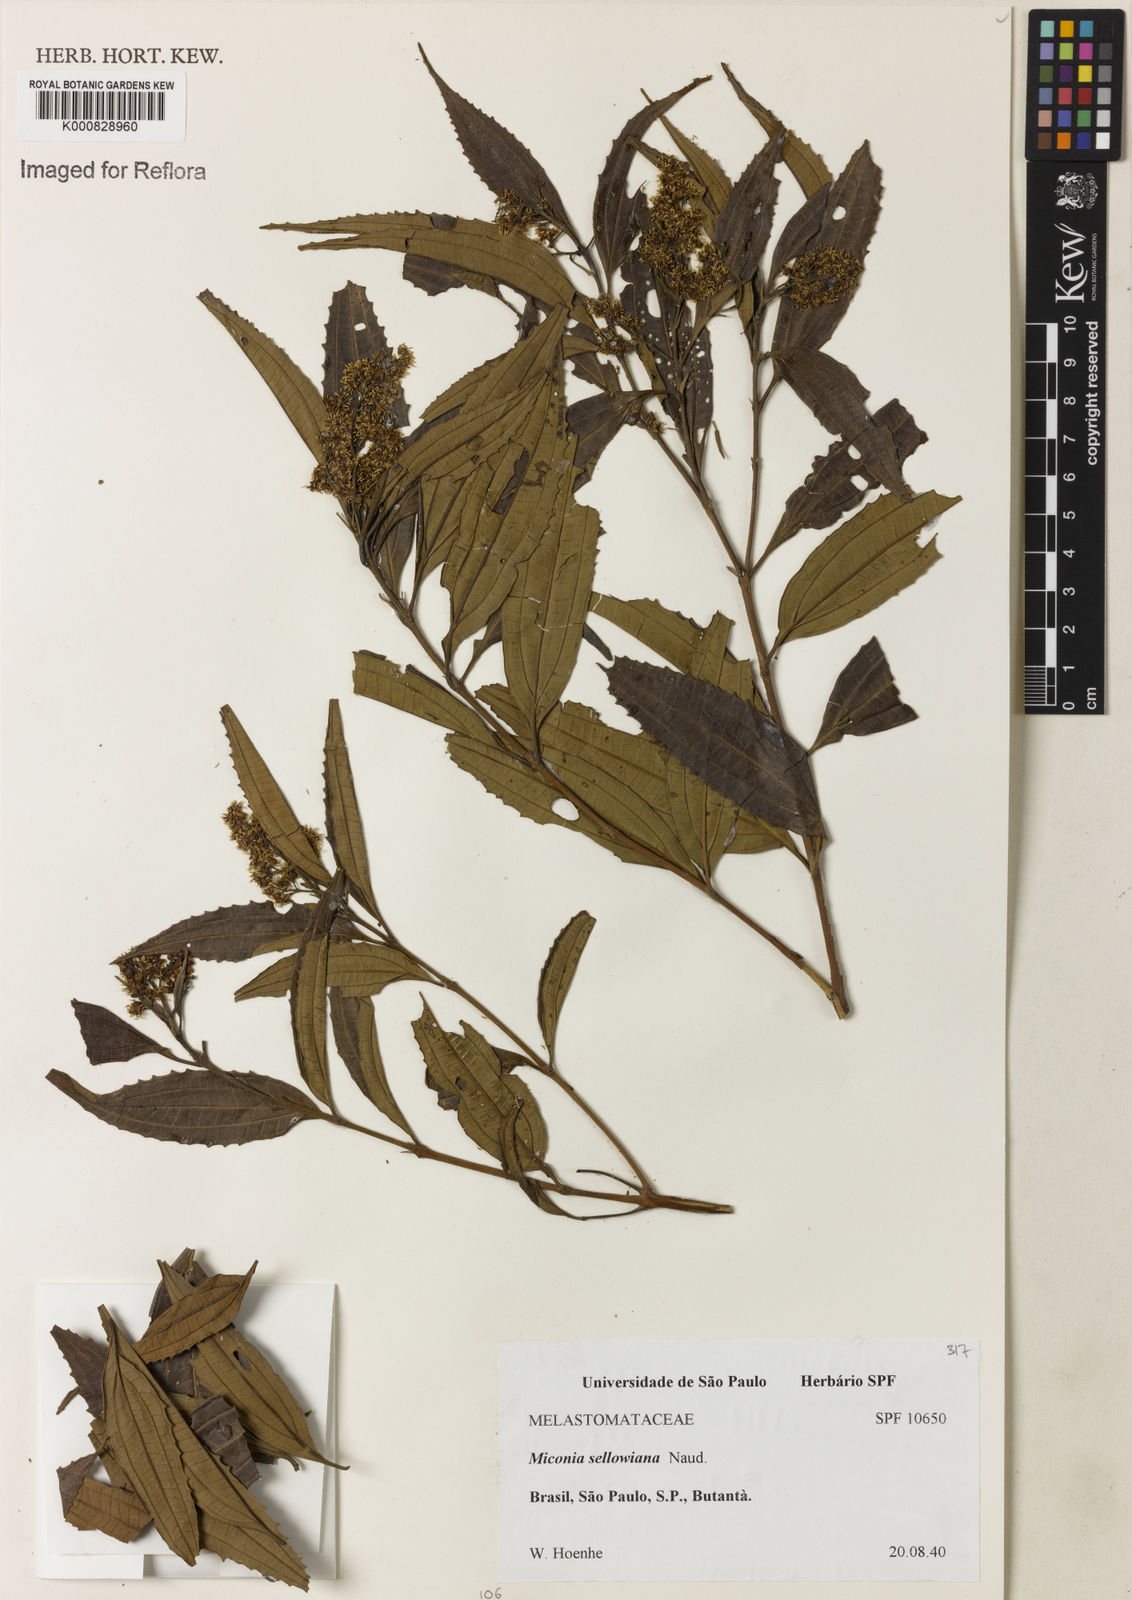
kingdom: Plantae
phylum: Tracheophyta
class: Magnoliopsida
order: Myrtales
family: Melastomataceae
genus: Miconia
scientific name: Miconia sellowiana
